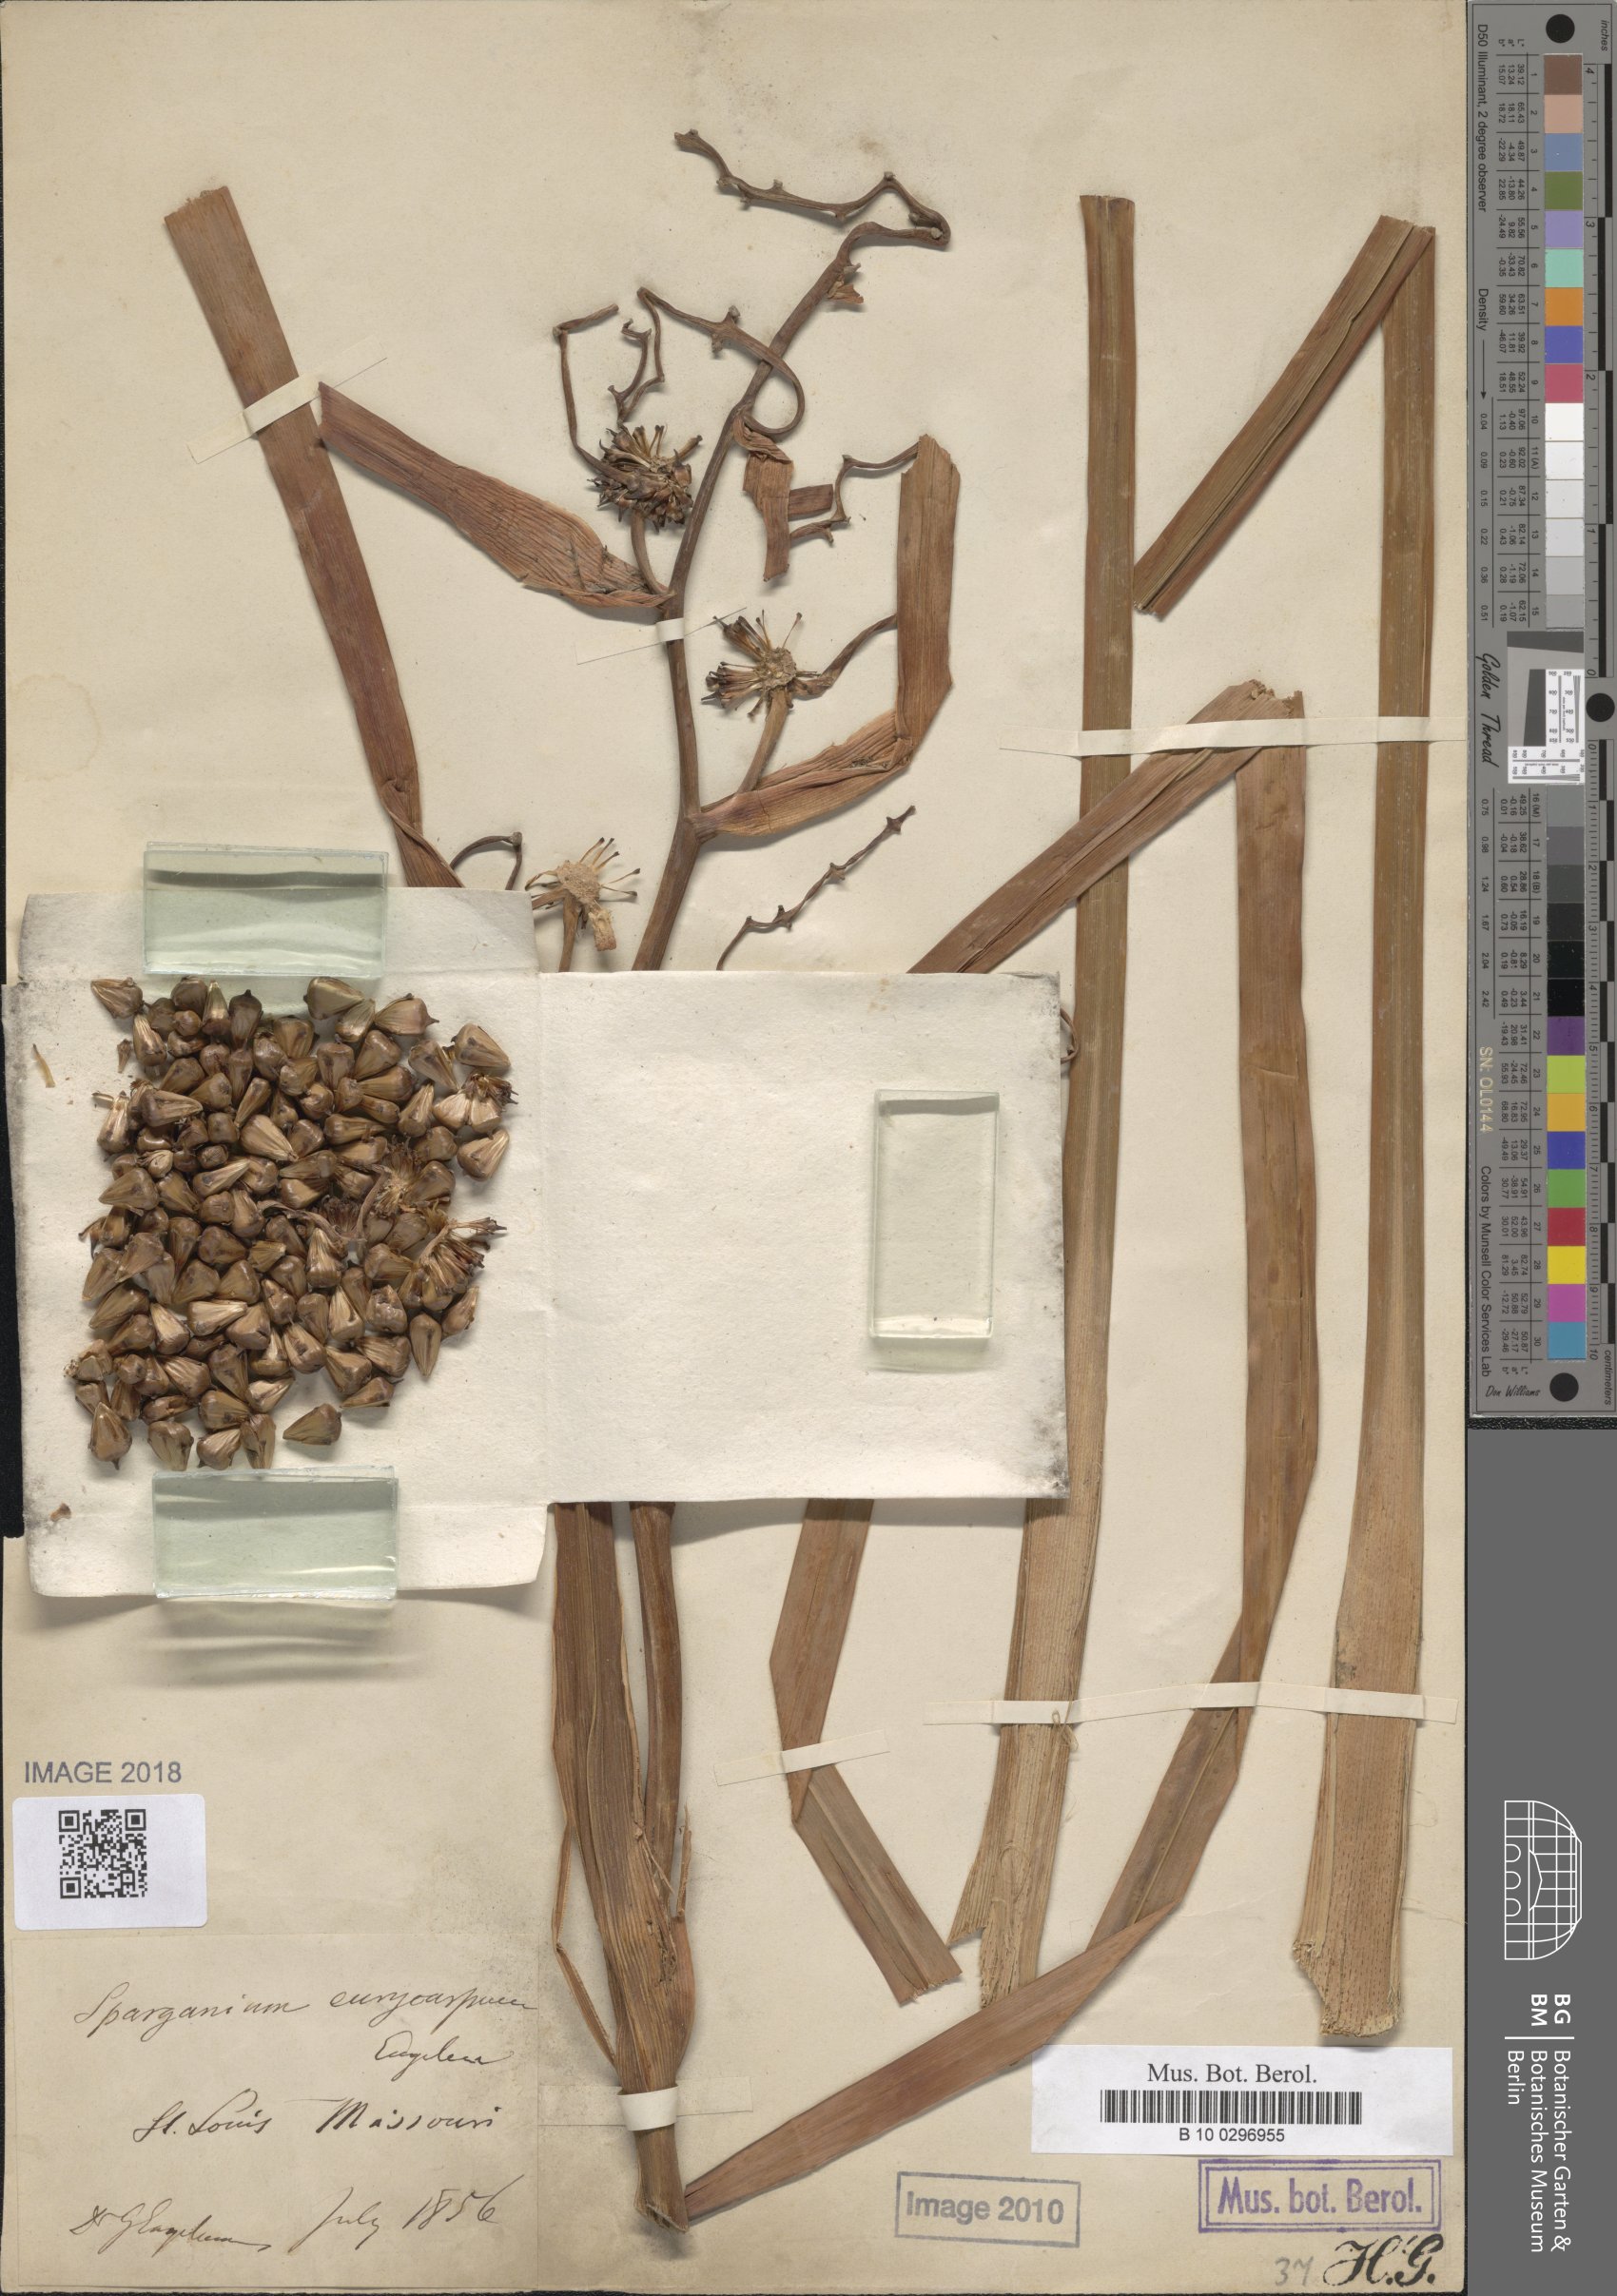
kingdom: Plantae
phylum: Tracheophyta
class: Liliopsida
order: Poales
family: Typhaceae
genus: Sparganium
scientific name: Sparganium eurycarpum
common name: Broad-fruited burreed
